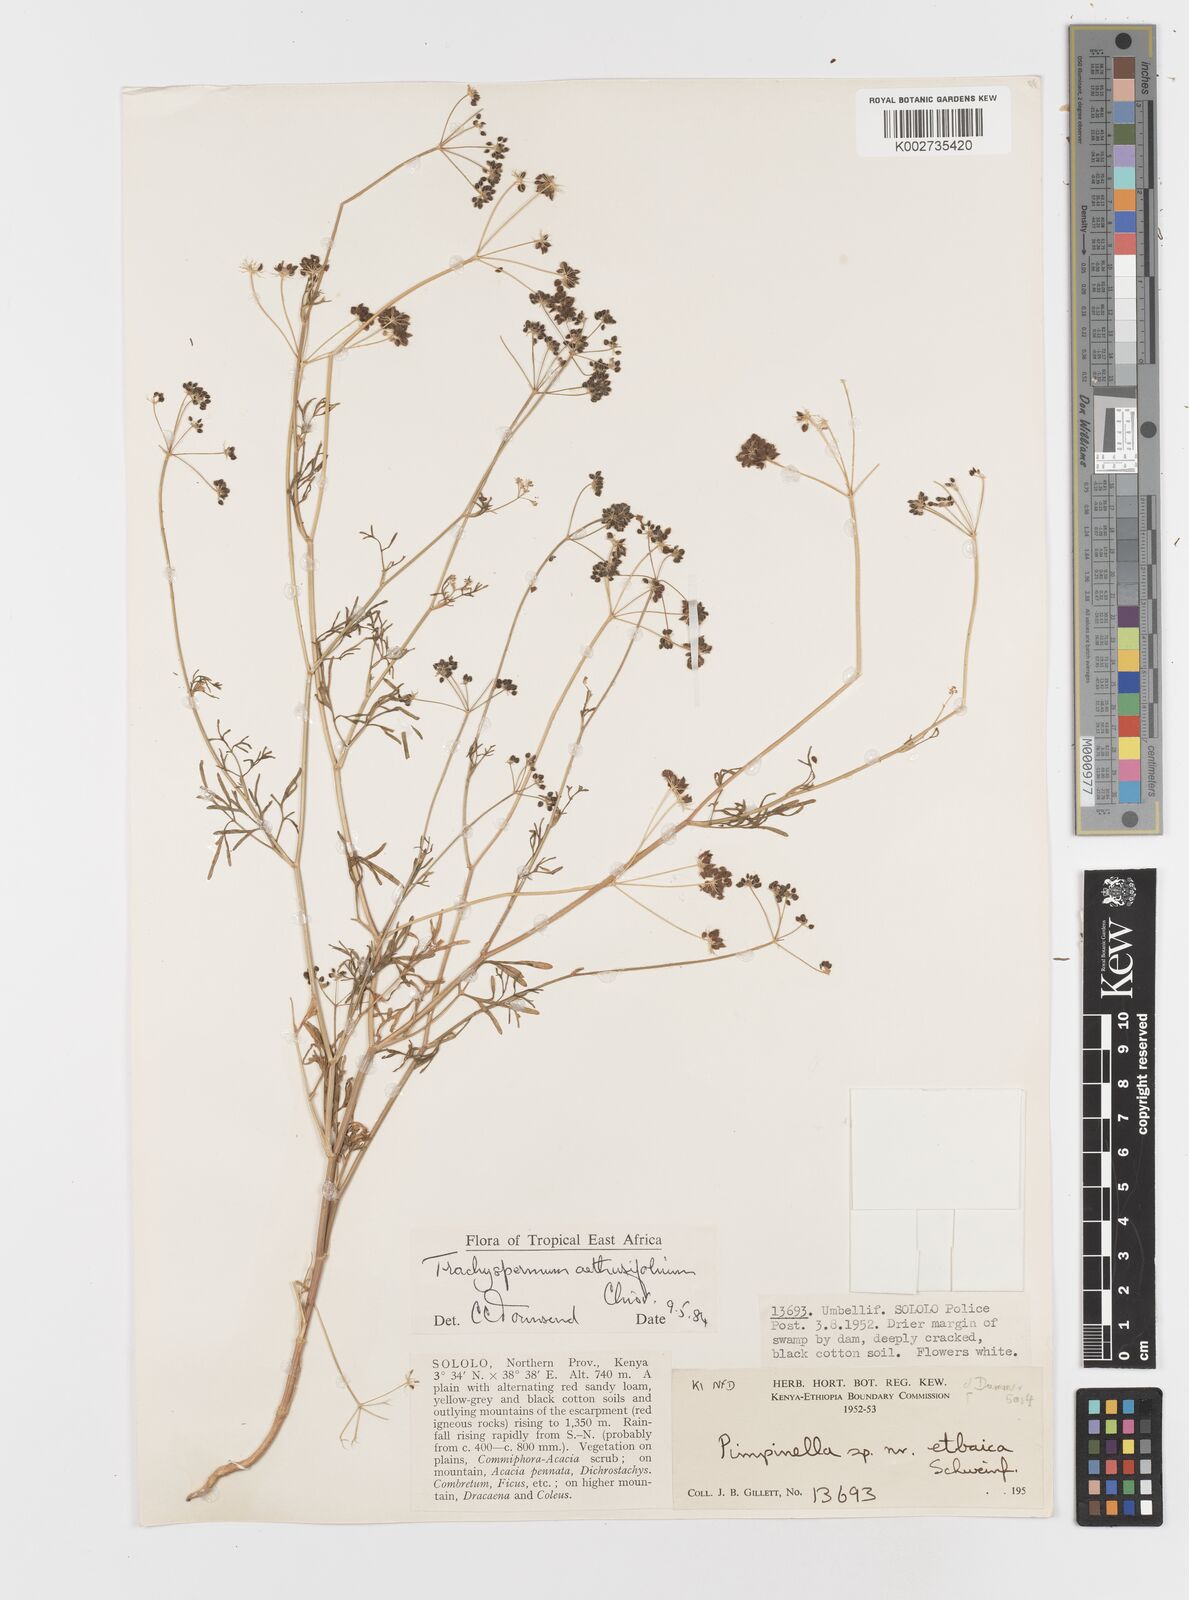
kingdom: Plantae
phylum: Tracheophyta
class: Magnoliopsida
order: Apiales
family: Apiaceae
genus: Trachyspermum
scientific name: Trachyspermum pimpinelloides
